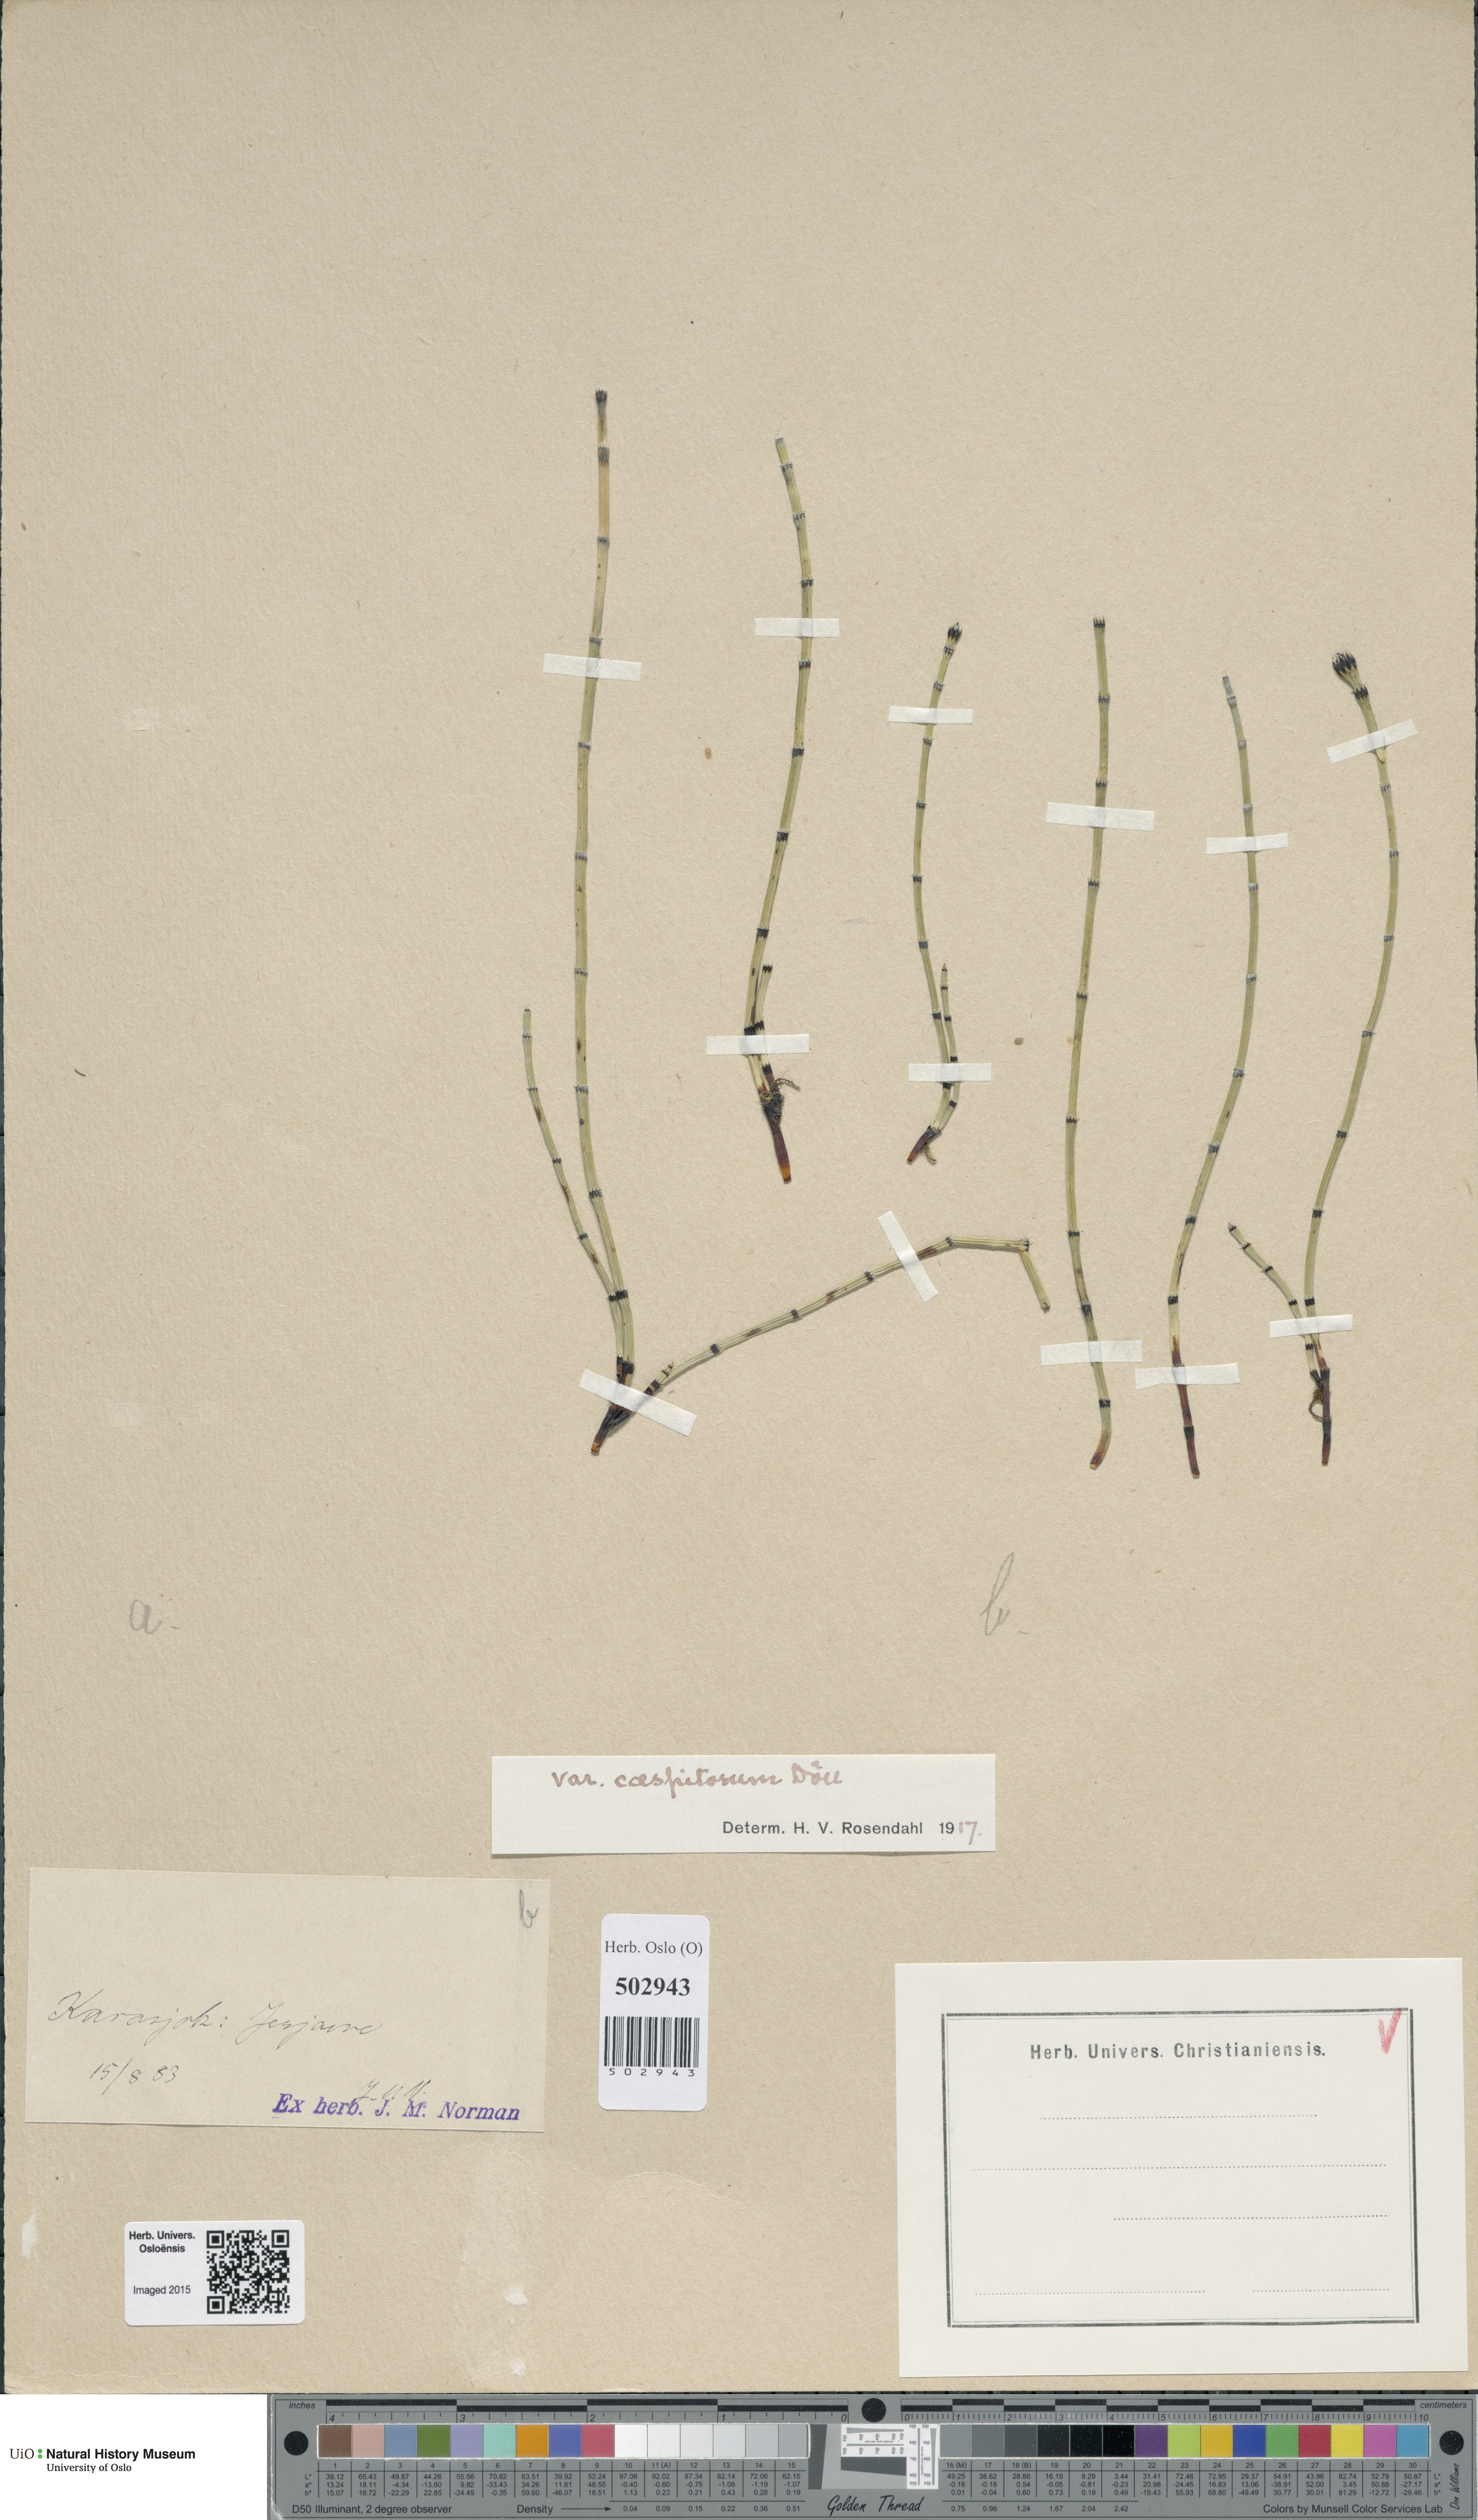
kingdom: Plantae
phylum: Tracheophyta
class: Polypodiopsida
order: Equisetales
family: Equisetaceae
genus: Equisetum
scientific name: Equisetum variegatum
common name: Variegated horsetail
